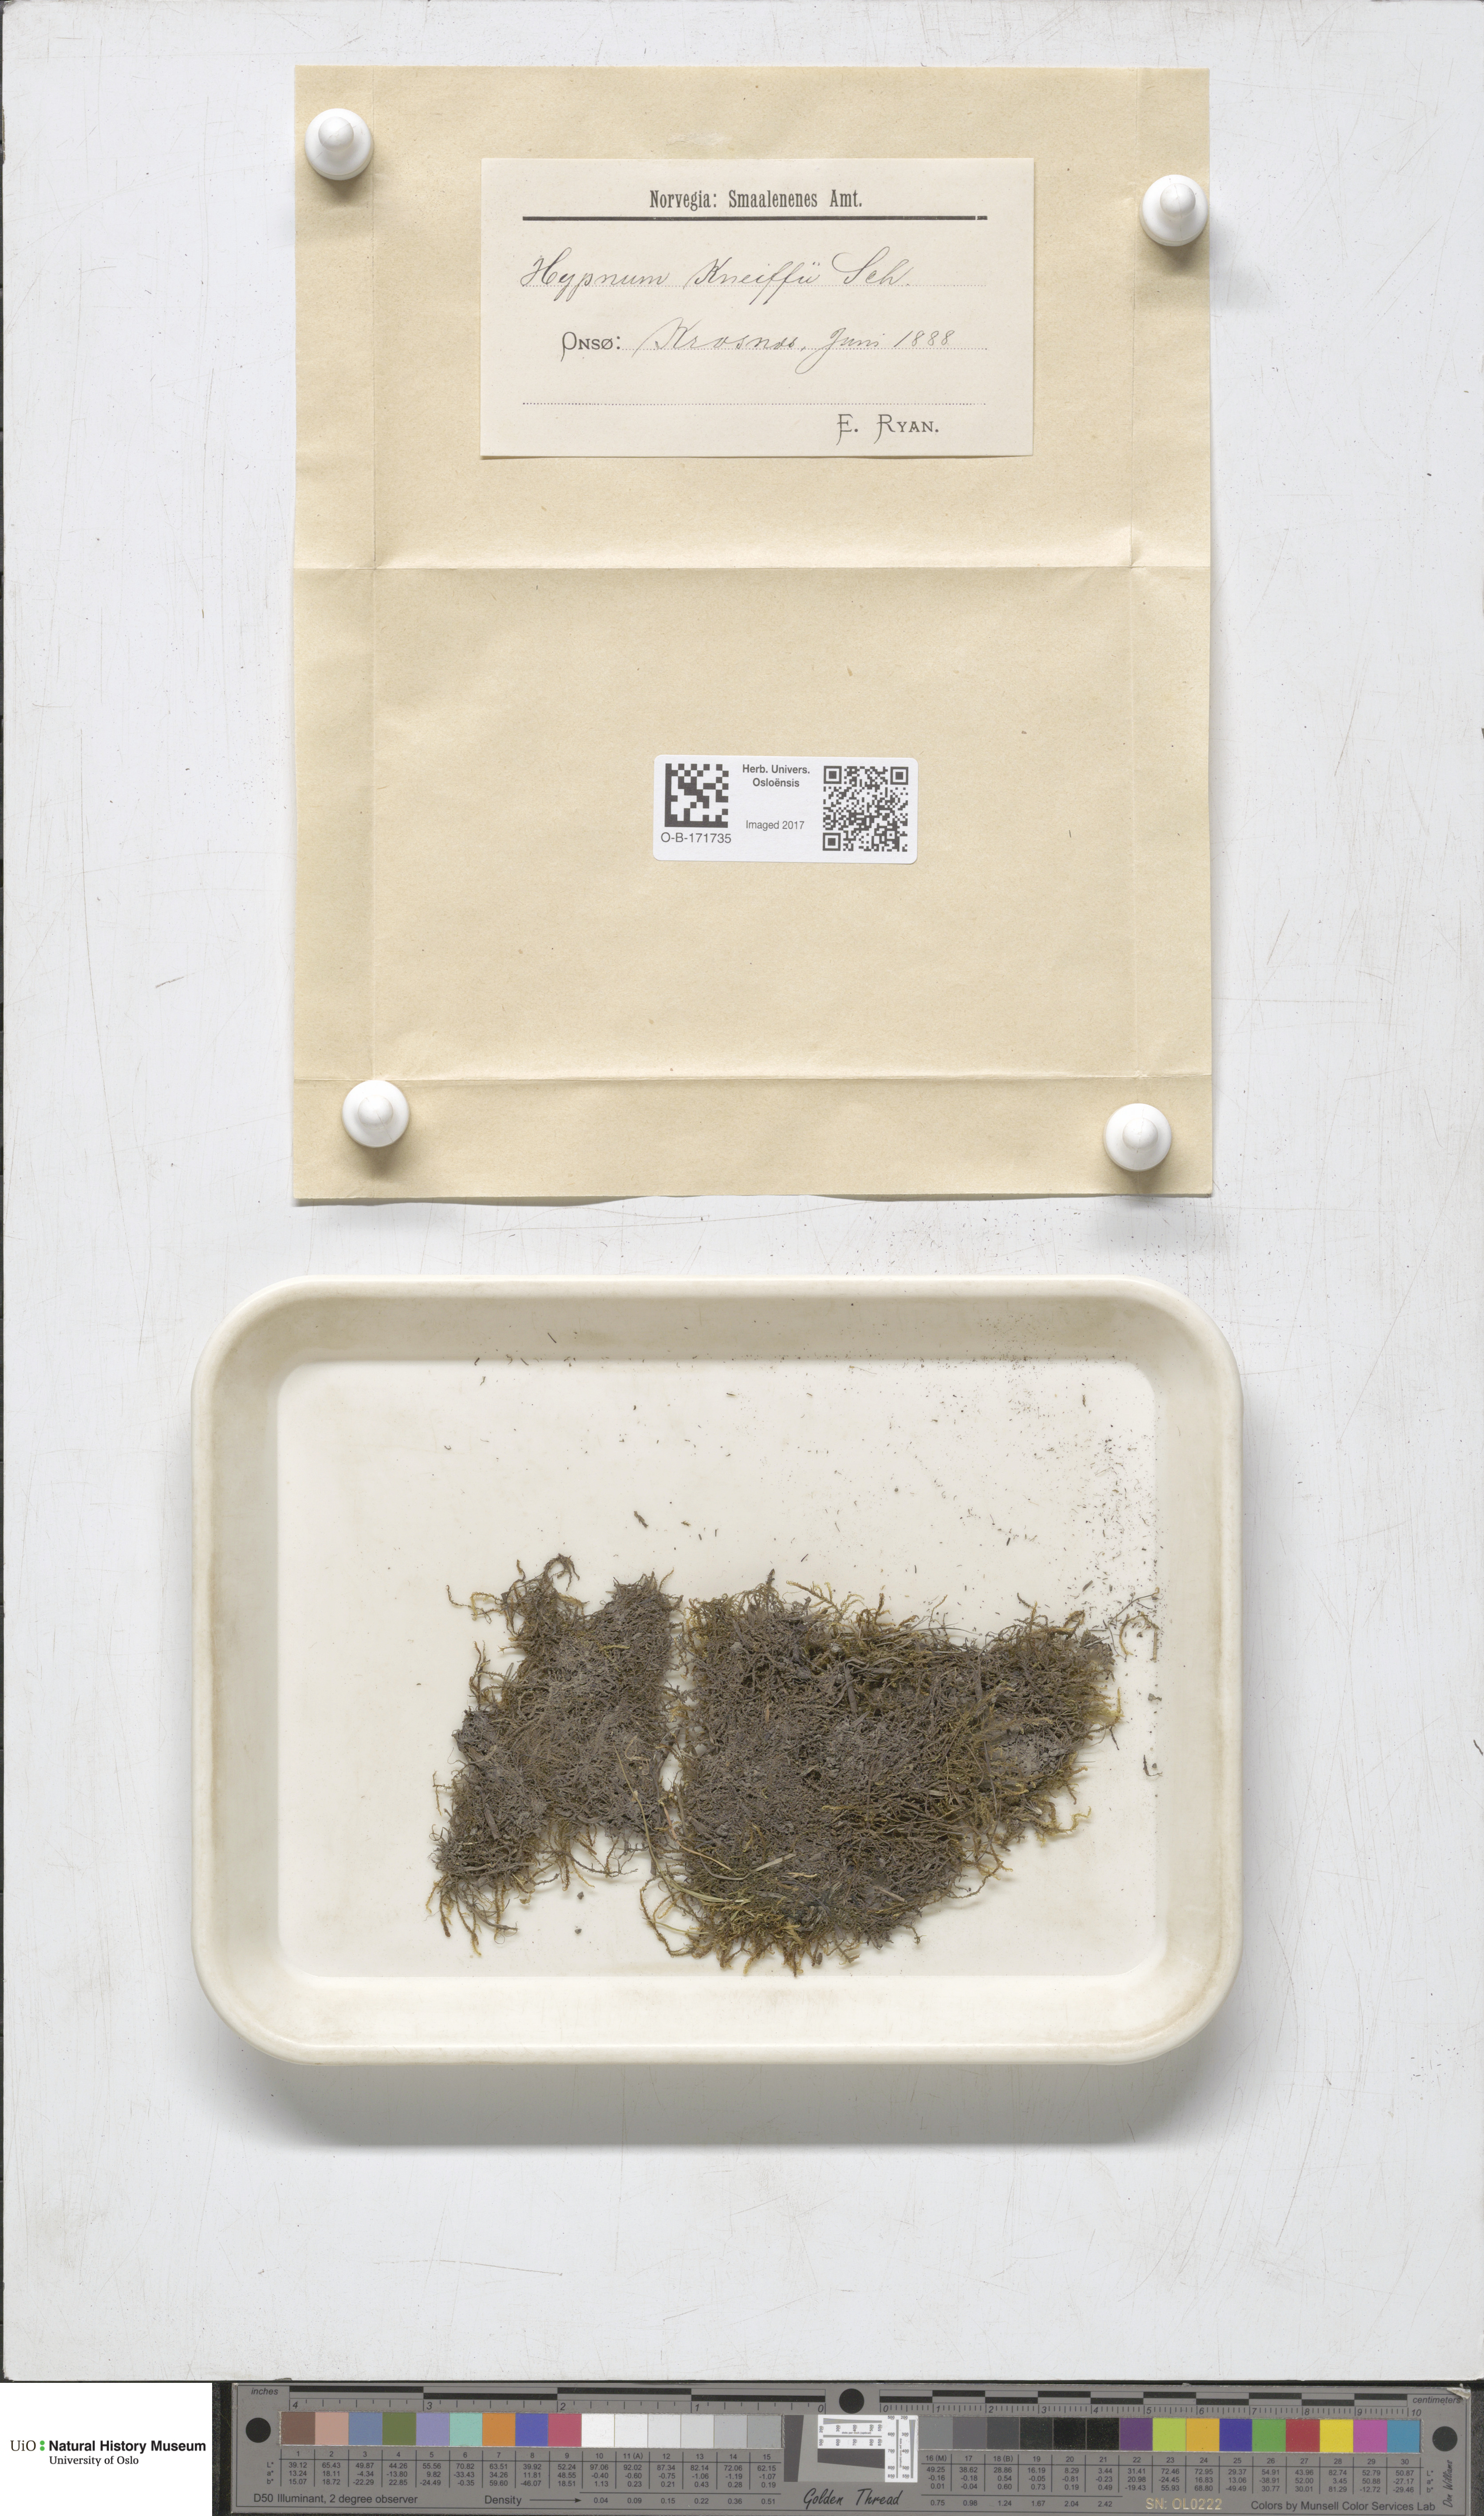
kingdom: Plantae
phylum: Bryophyta
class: Bryopsida
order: Hypnales
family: Amblystegiaceae
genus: Drepanocladus
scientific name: Drepanocladus aduncus
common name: Knieff's hook moss
